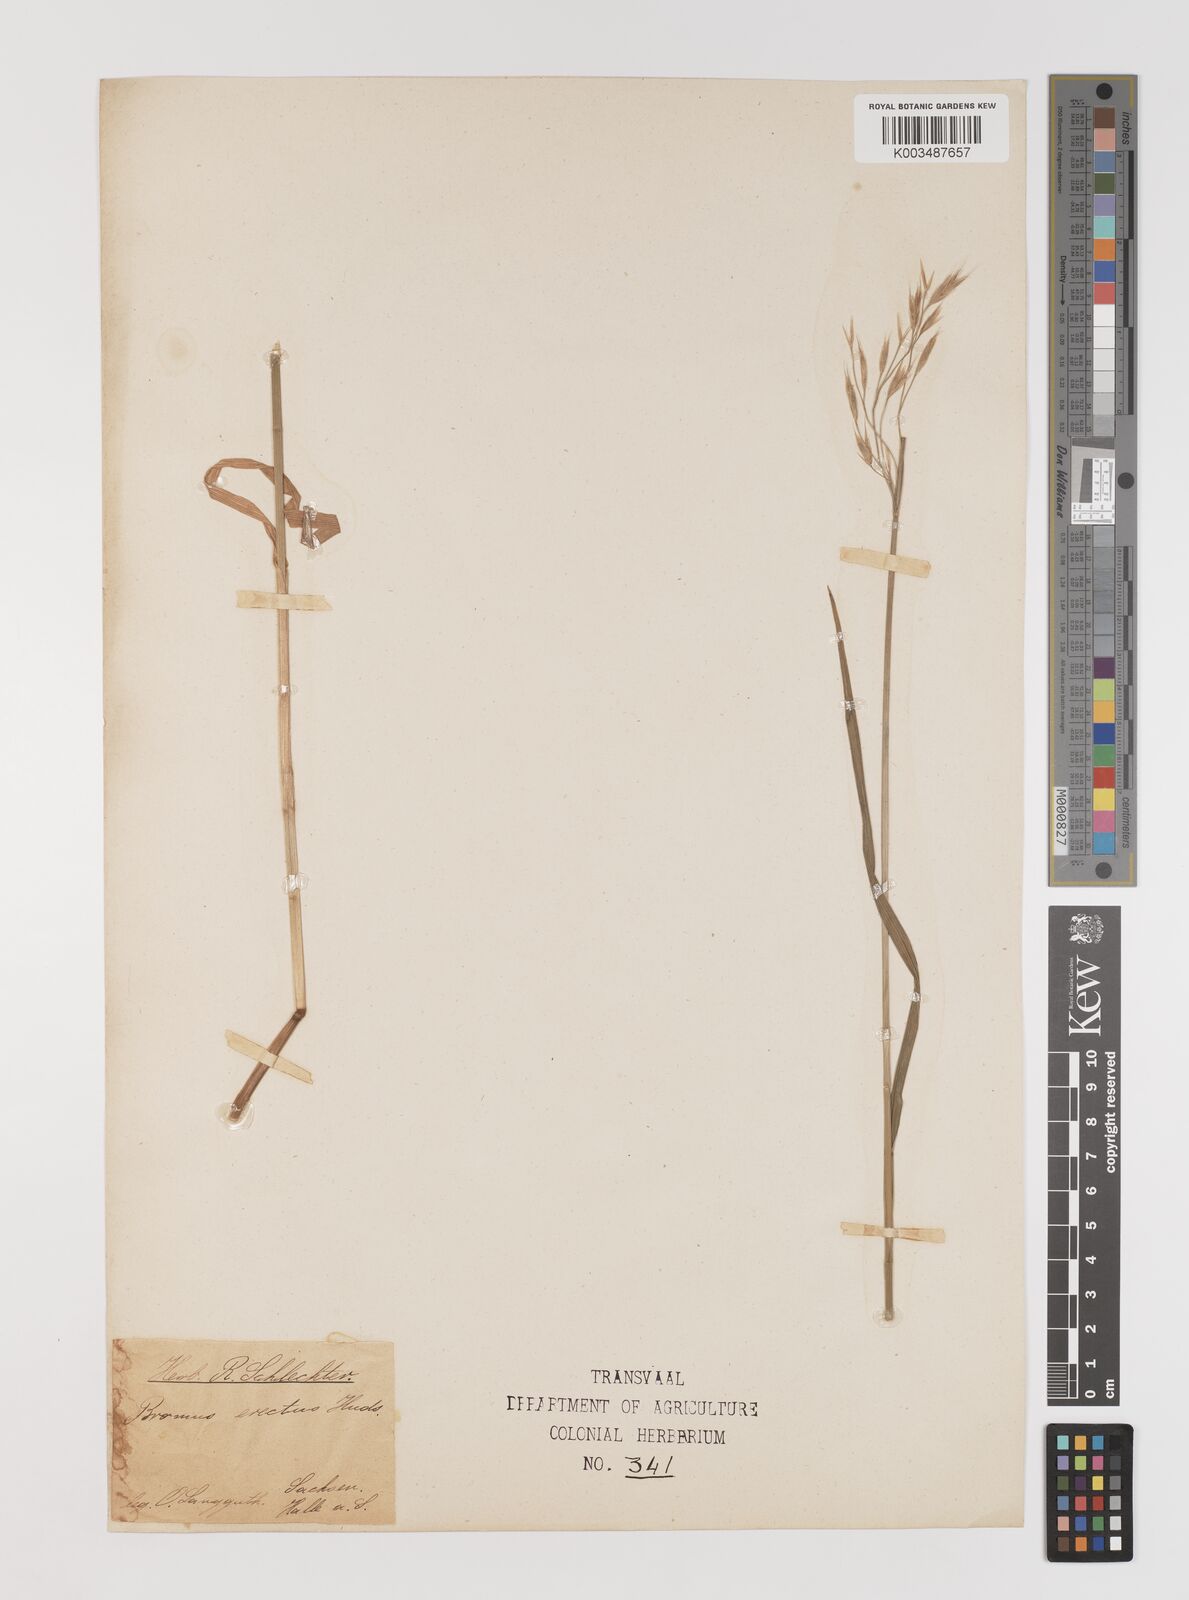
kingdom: Plantae
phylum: Tracheophyta
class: Liliopsida
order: Poales
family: Poaceae
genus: Bromus
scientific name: Bromus erectus
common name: Erect brome
